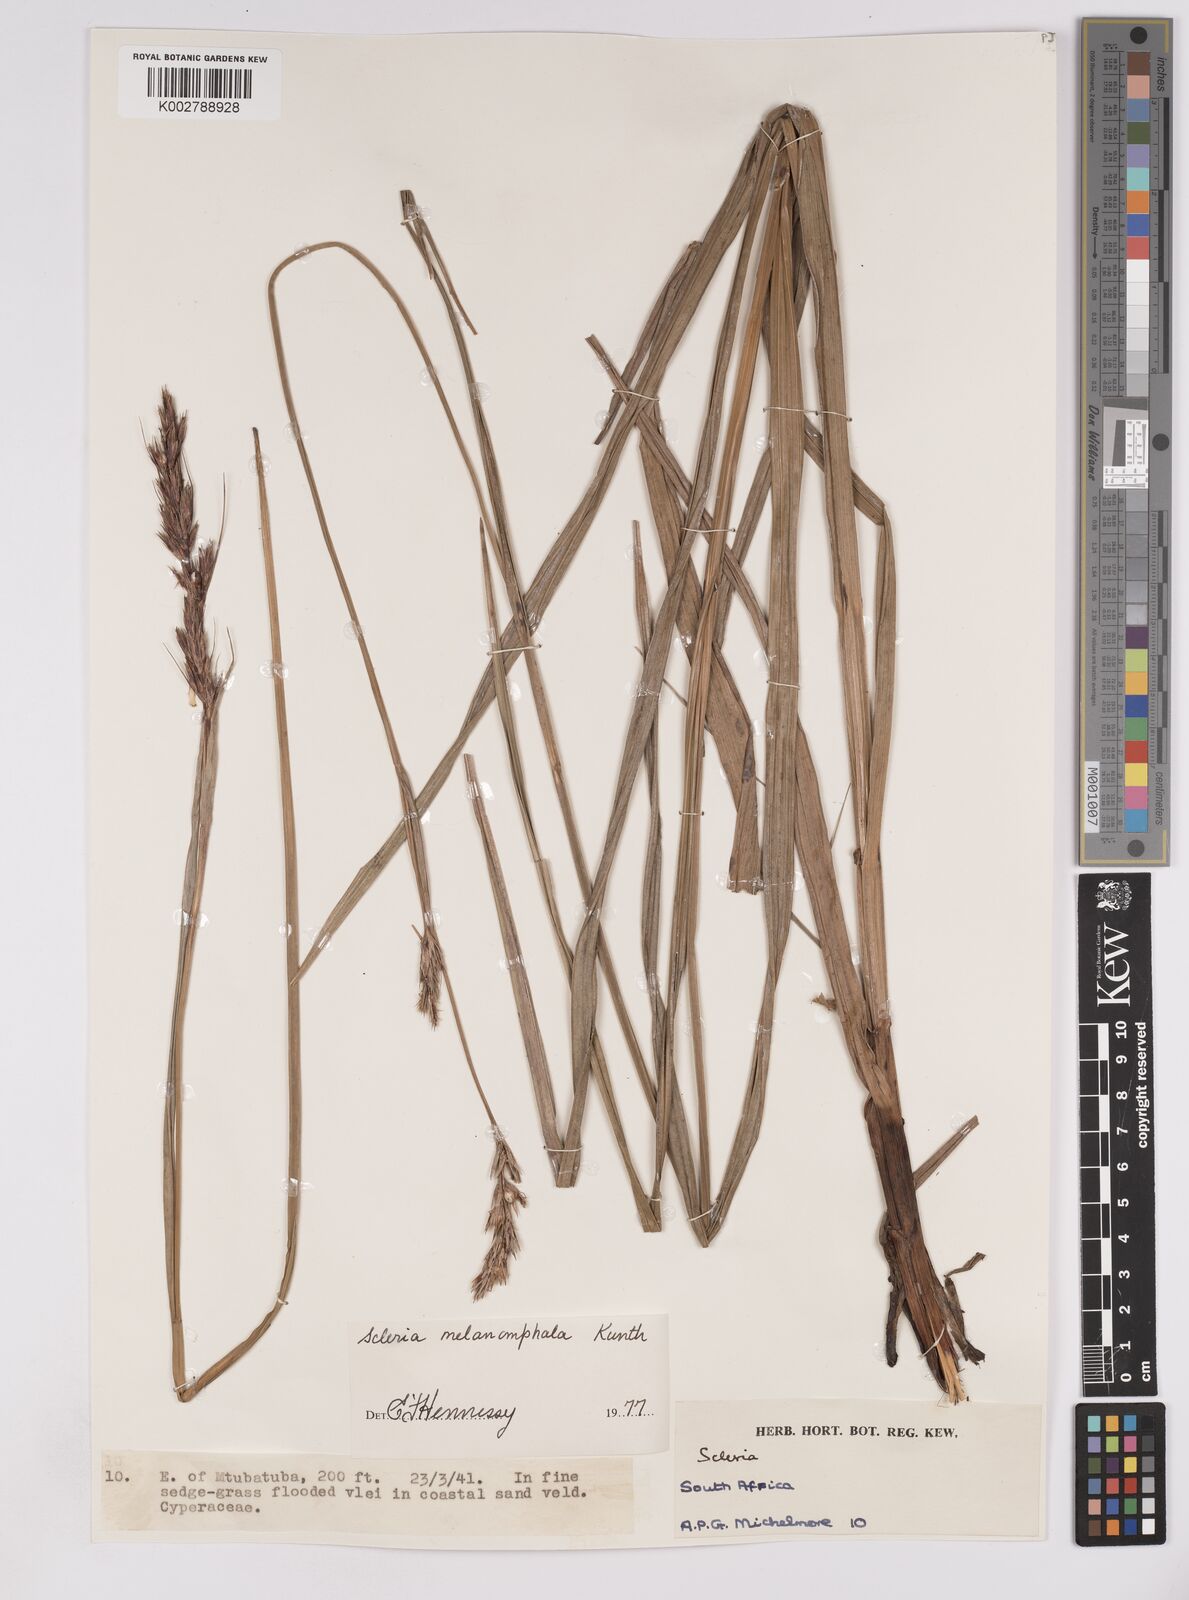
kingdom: Plantae
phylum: Tracheophyta
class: Liliopsida
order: Poales
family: Cyperaceae
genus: Scleria
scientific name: Scleria melanomphala
